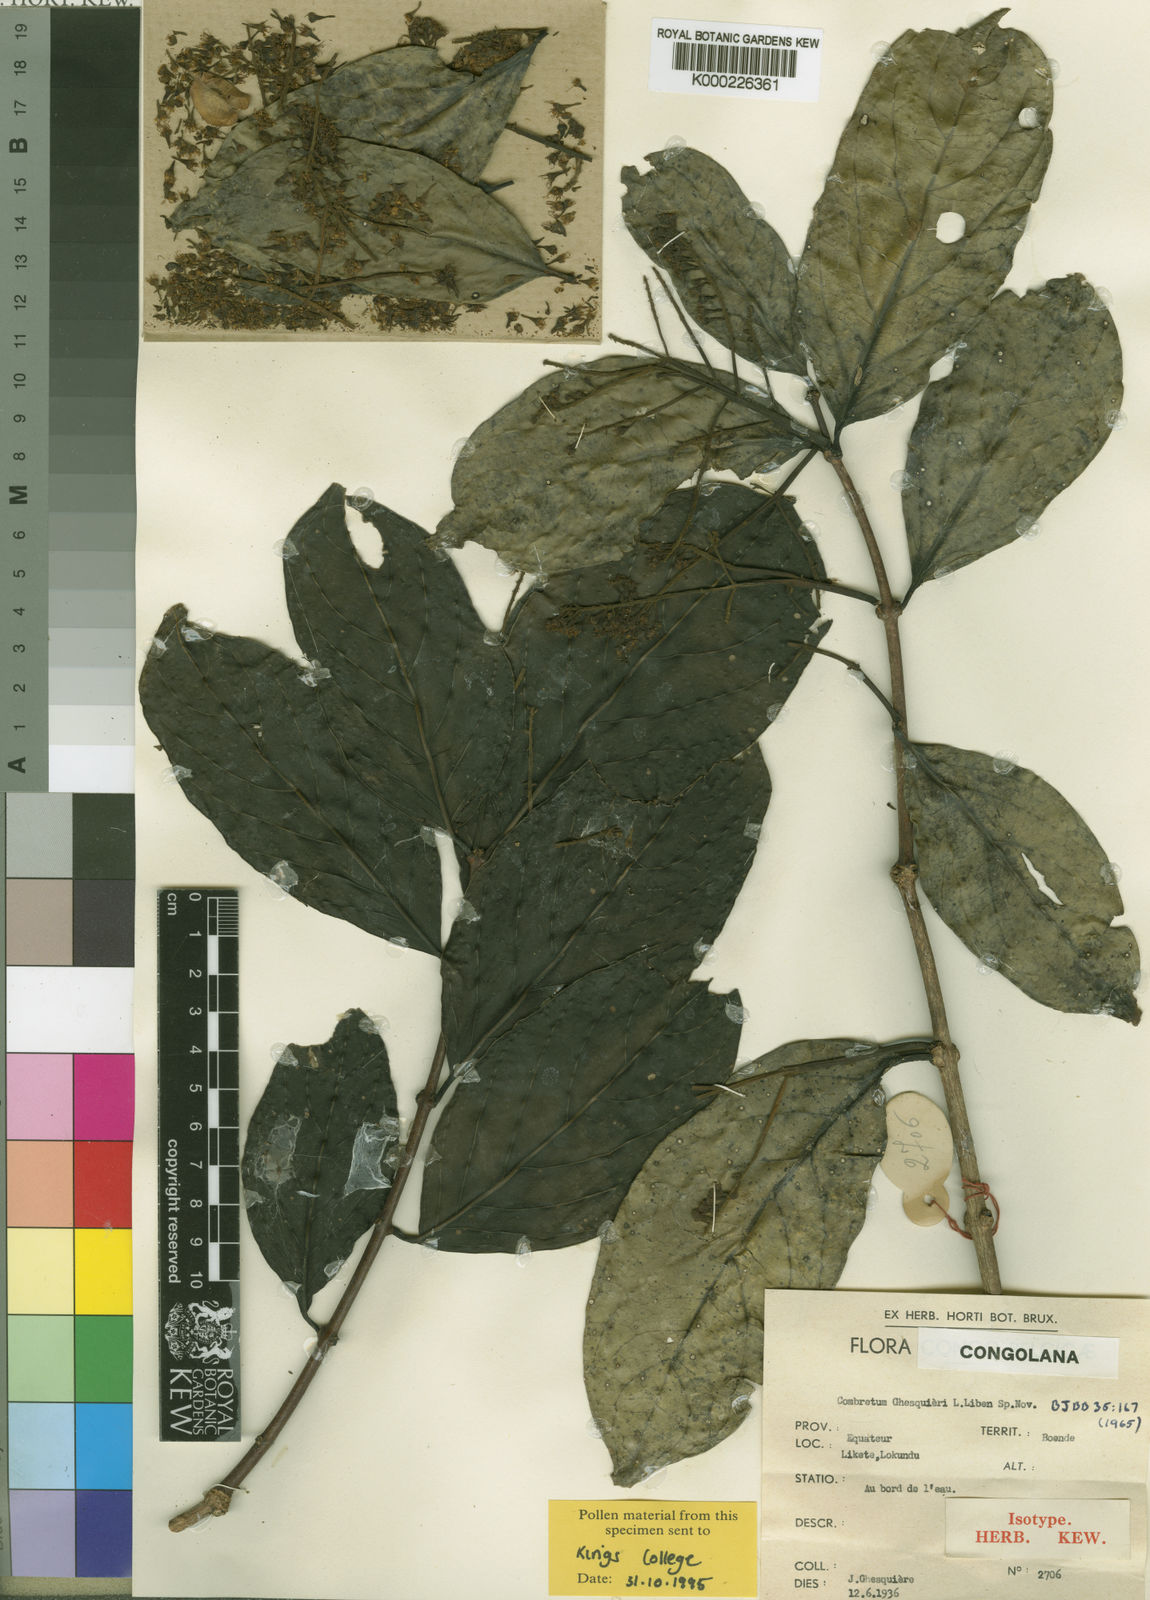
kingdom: Plantae
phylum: Tracheophyta
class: Magnoliopsida
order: Myrtales
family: Combretaceae
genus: Combretum
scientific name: Combretum ghesquierei
